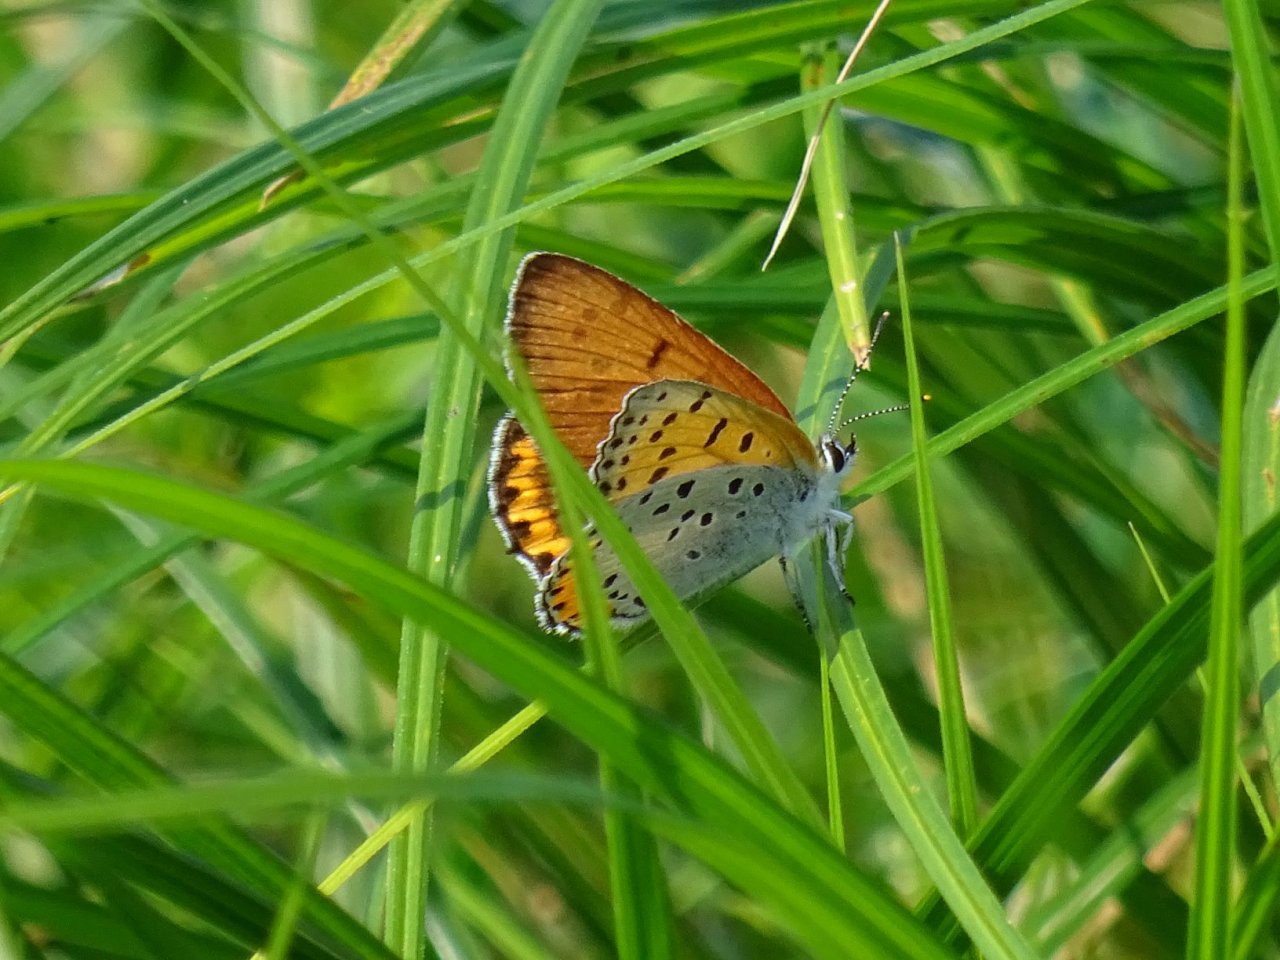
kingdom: Animalia
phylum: Arthropoda
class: Insecta
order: Lepidoptera
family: Sesiidae
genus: Sesia
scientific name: Sesia Lycaena hyllus
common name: Bronze Copper
